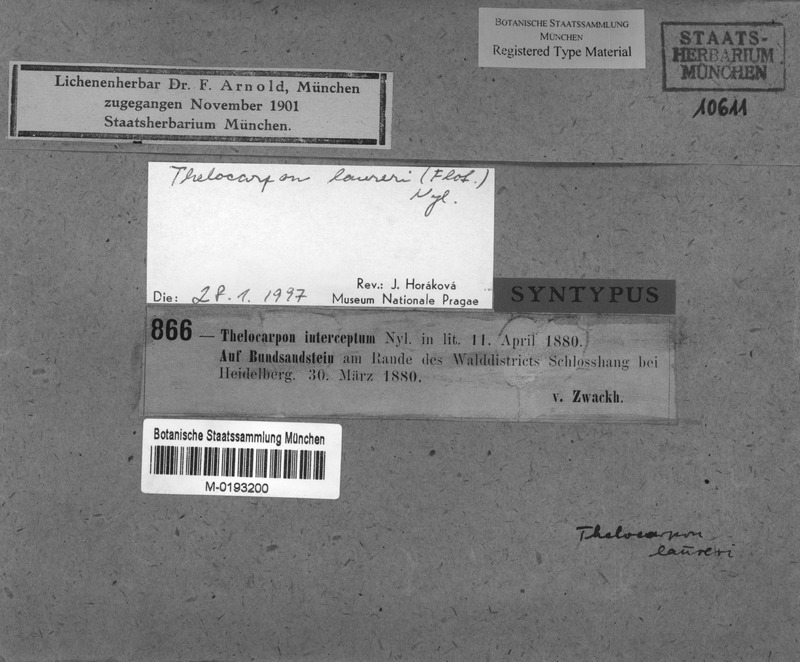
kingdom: Fungi
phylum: Ascomycota
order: Thelocarpales
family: Thelocarpaceae
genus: Thelocarpon
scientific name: Thelocarpon laureri
